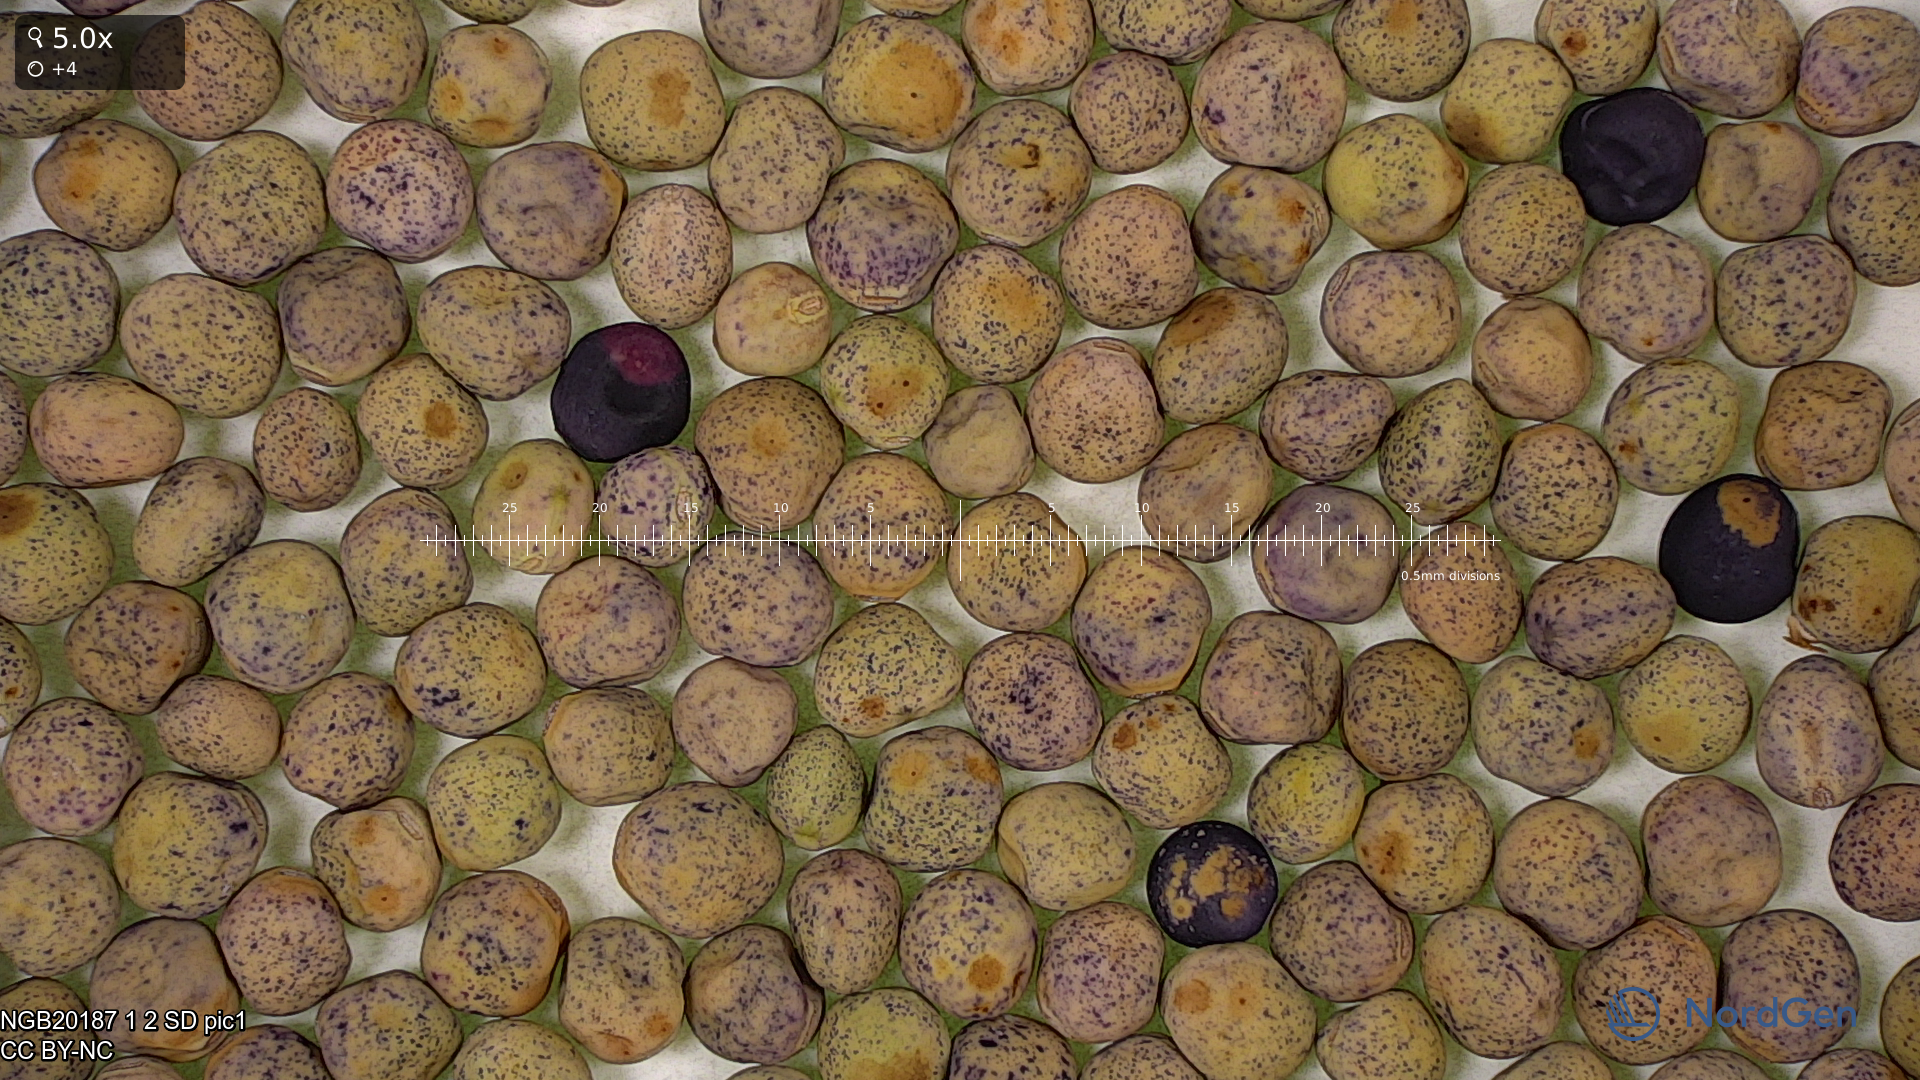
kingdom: Plantae
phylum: Tracheophyta
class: Magnoliopsida
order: Fabales
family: Fabaceae
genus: Lathyrus
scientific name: Lathyrus oleraceus
